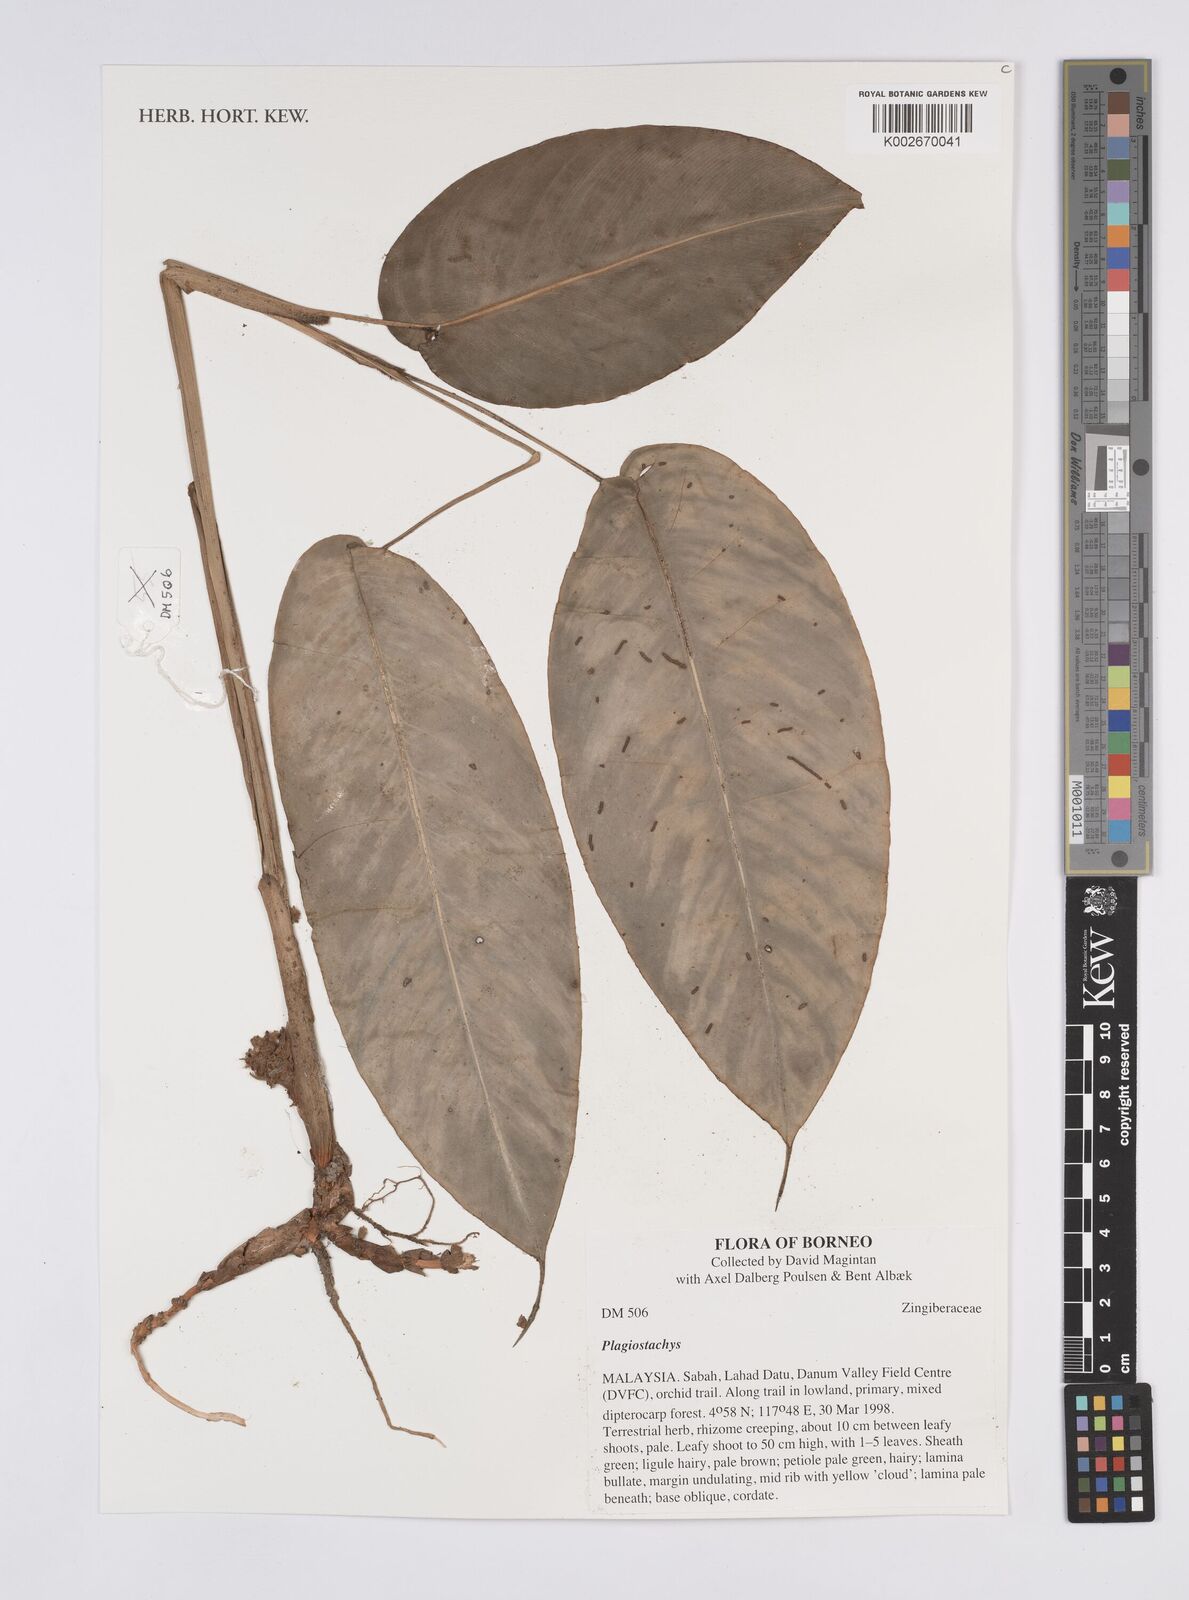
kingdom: Plantae
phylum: Tracheophyta
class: Liliopsida
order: Zingiberales
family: Zingiberaceae
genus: Plagiostachys
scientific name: Plagiostachys
